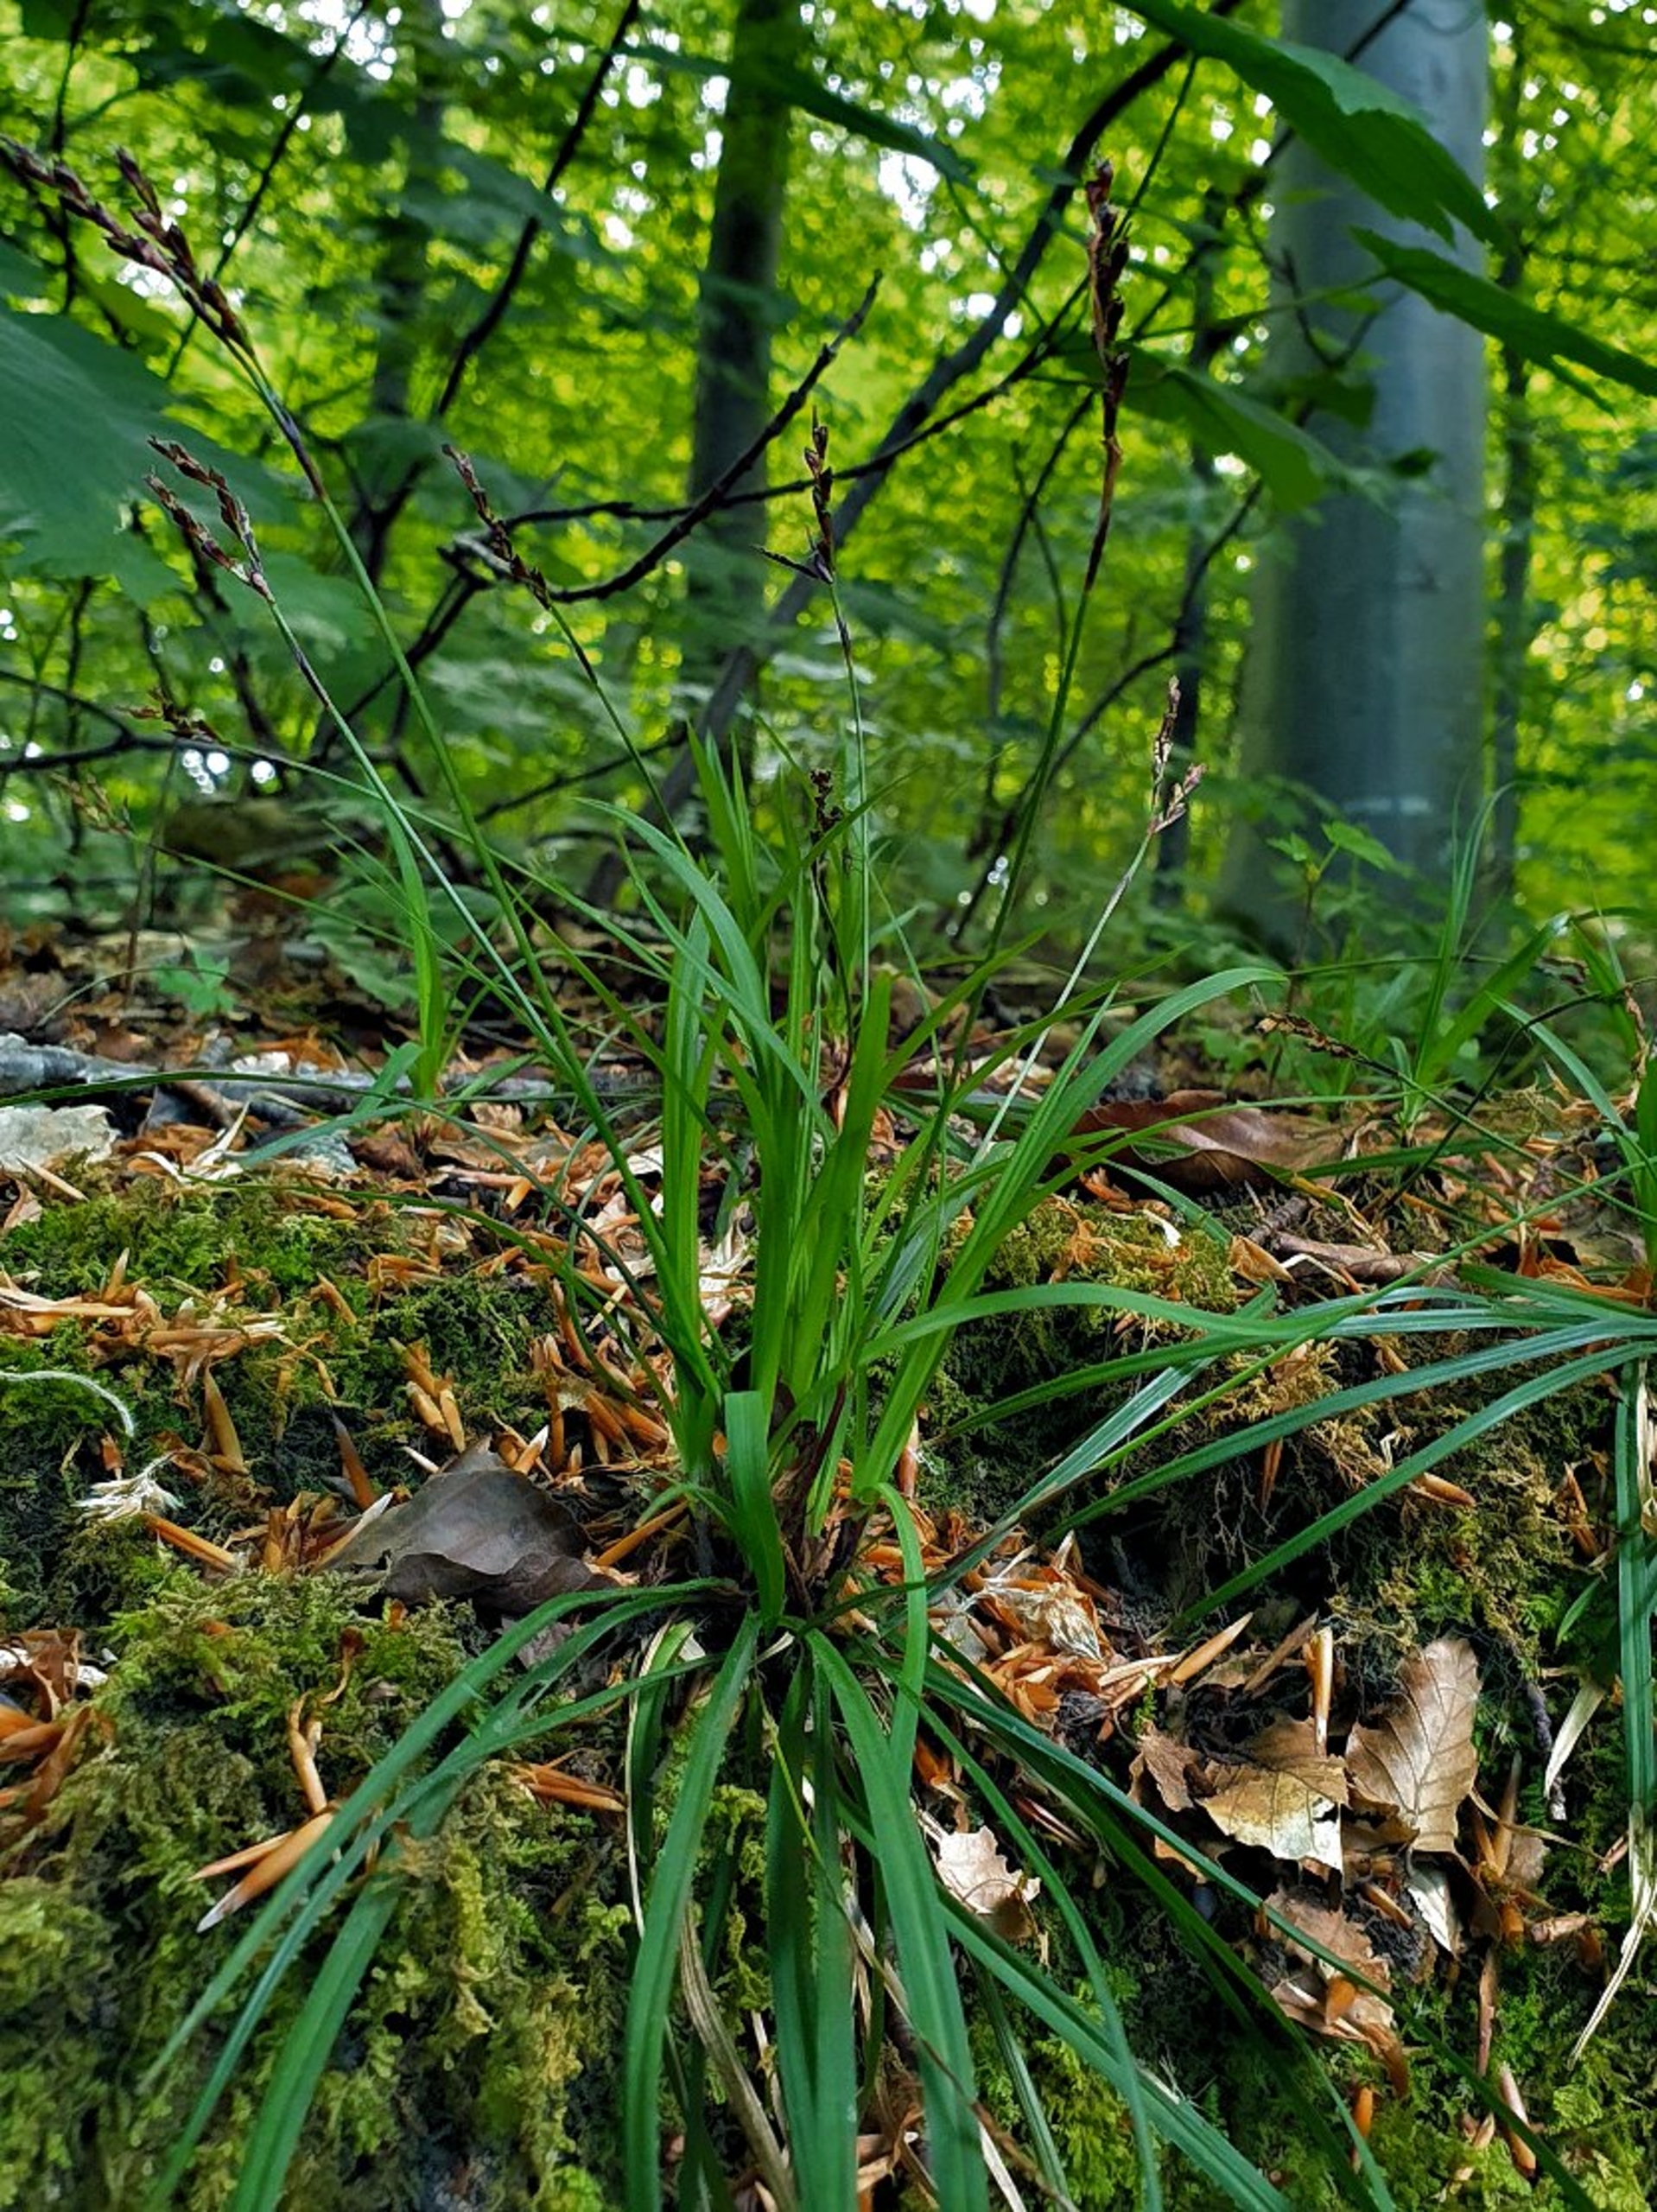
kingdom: Plantae
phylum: Tracheophyta
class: Liliopsida
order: Poales
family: Cyperaceae
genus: Carex
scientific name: Carex digitata
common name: Finger-star
